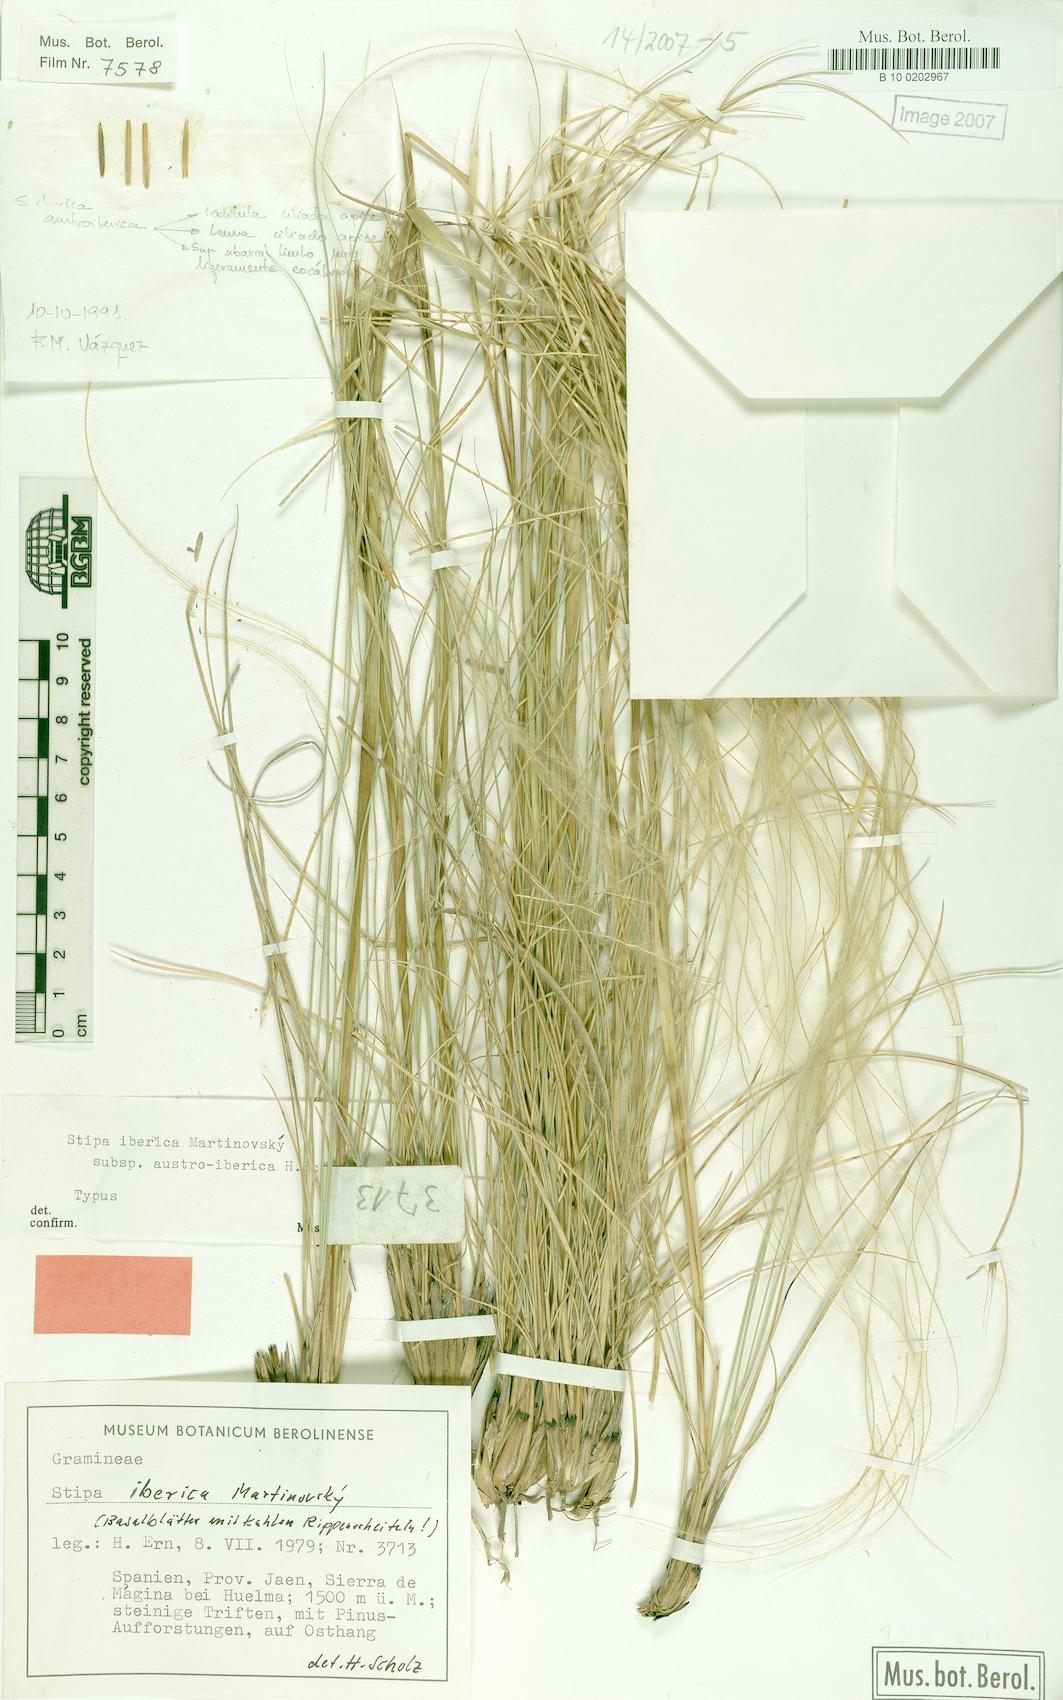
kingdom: Plantae
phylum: Tracheophyta
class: Liliopsida
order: Poales
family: Poaceae
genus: Stipa
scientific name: Stipa iberica
